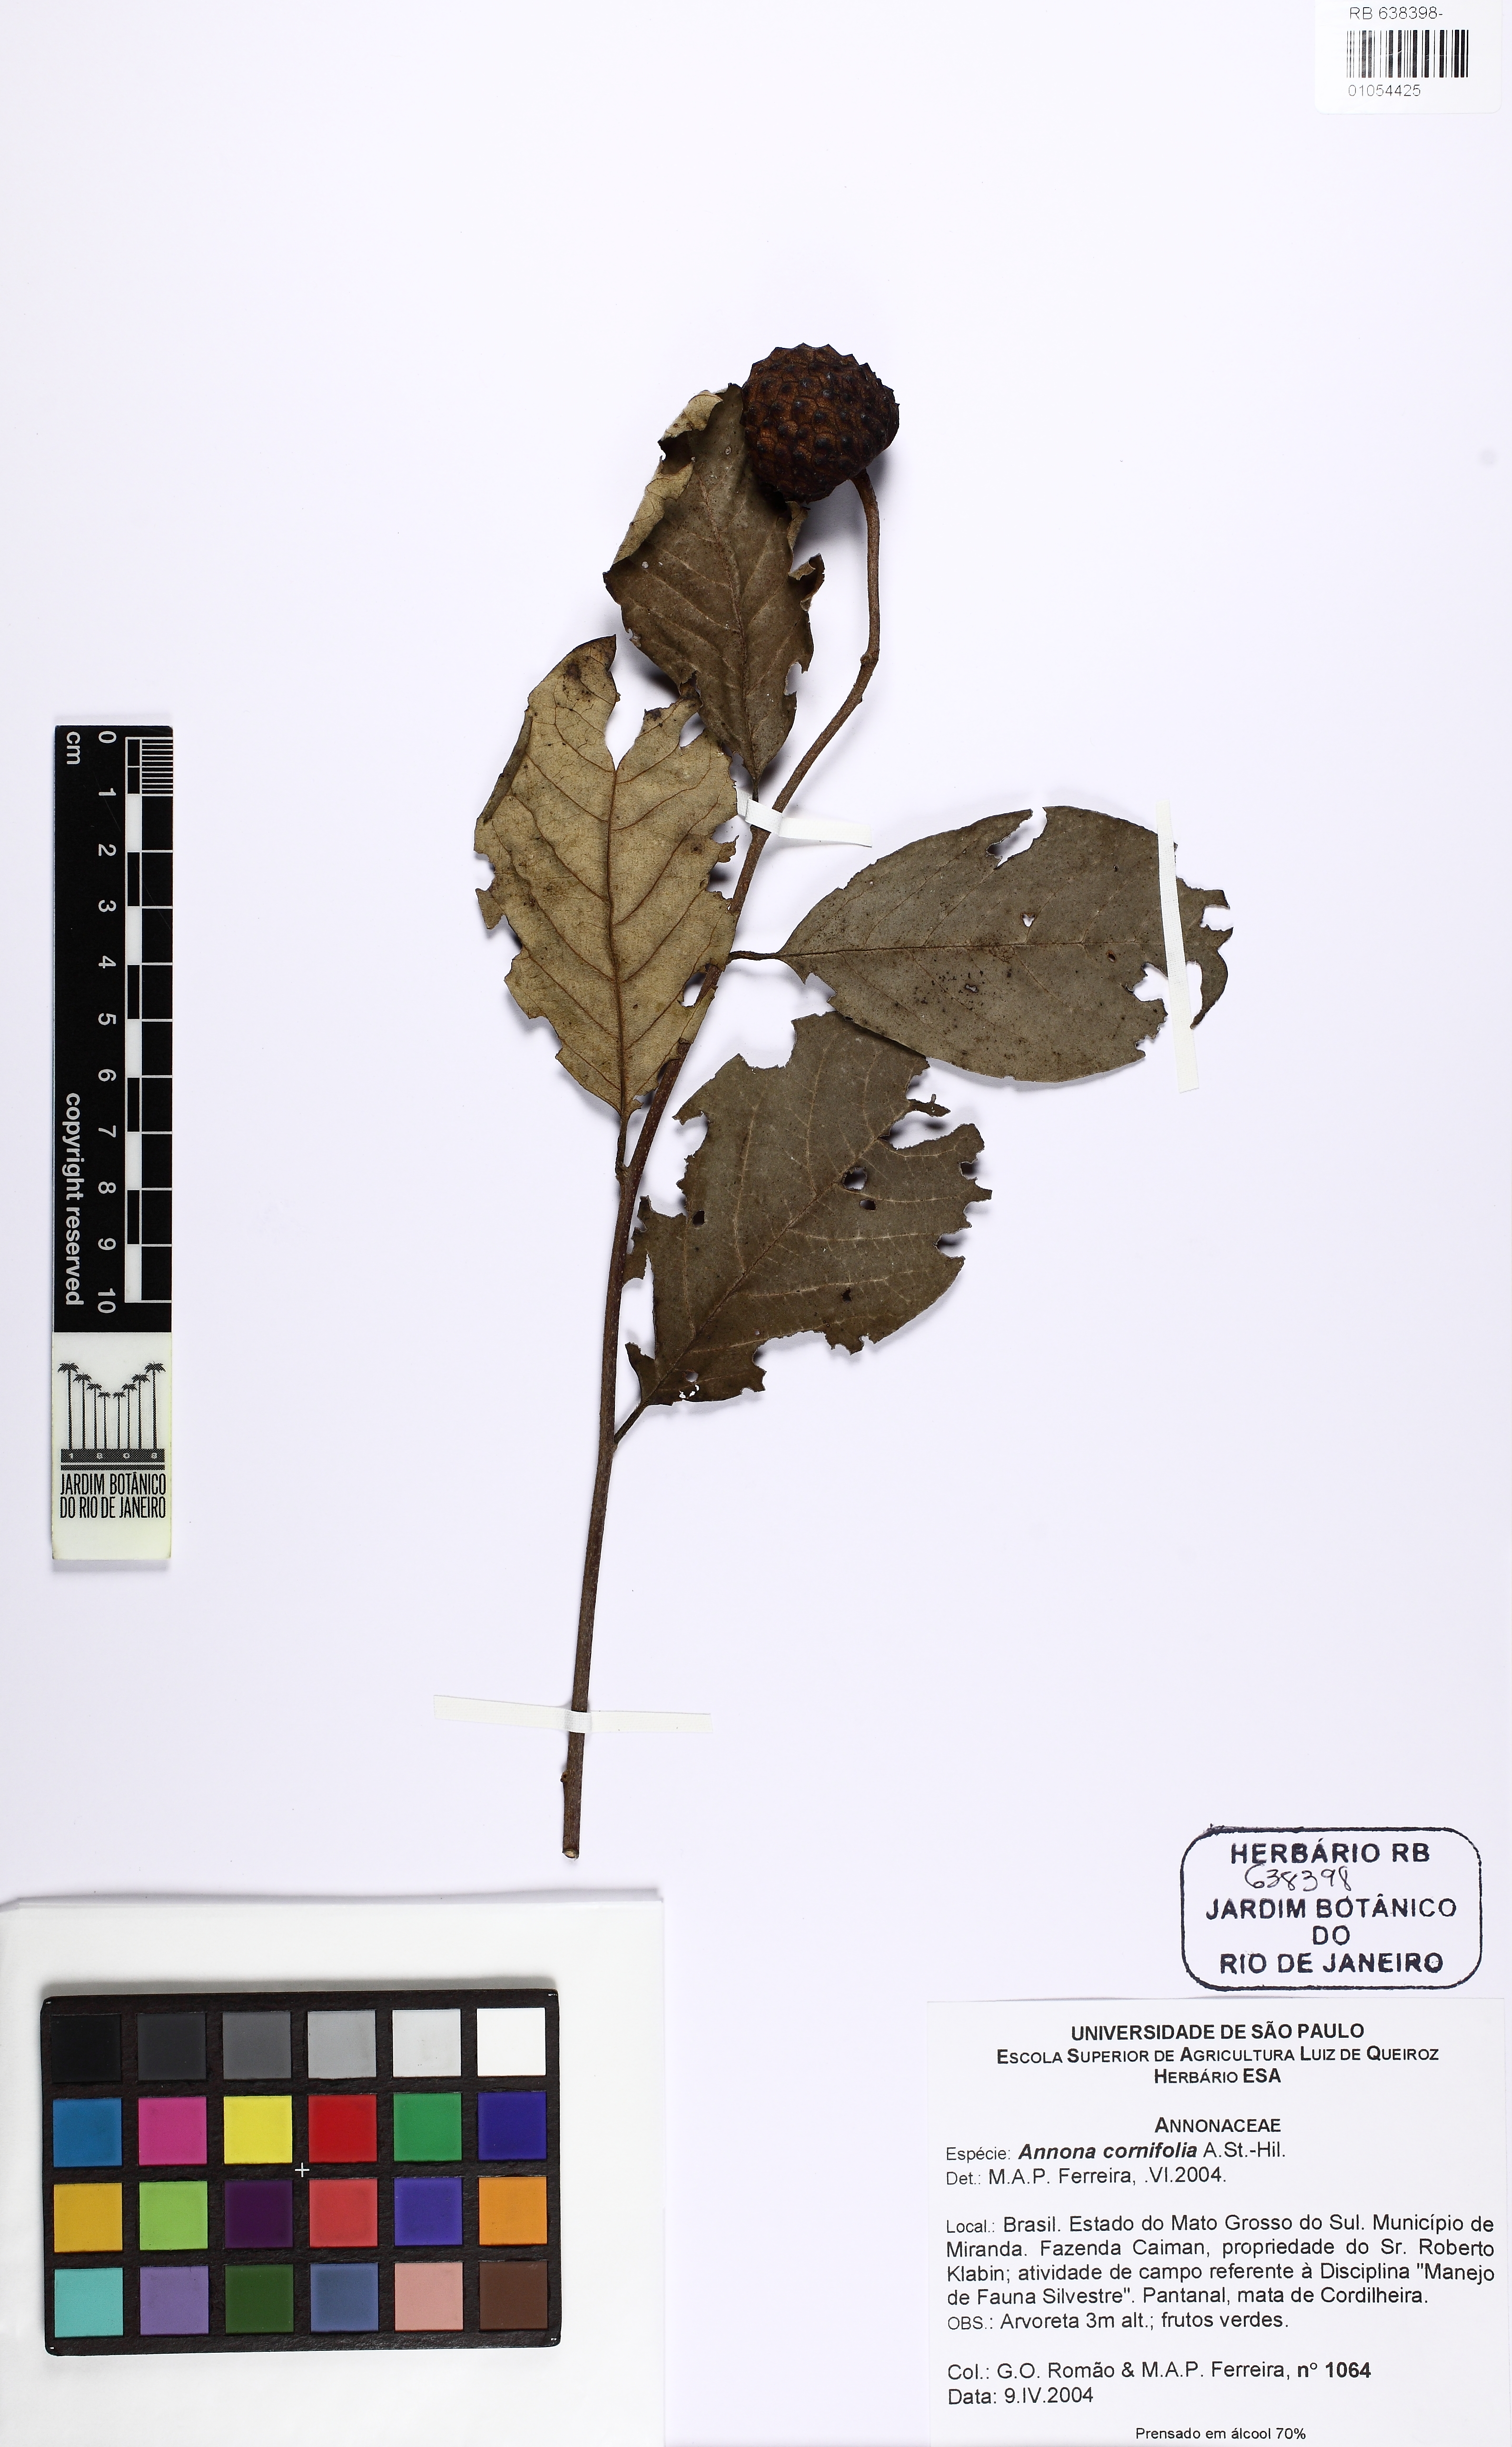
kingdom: Plantae
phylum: Tracheophyta
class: Magnoliopsida
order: Magnoliales
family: Annonaceae
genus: Annona
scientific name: Annona cornifolia
